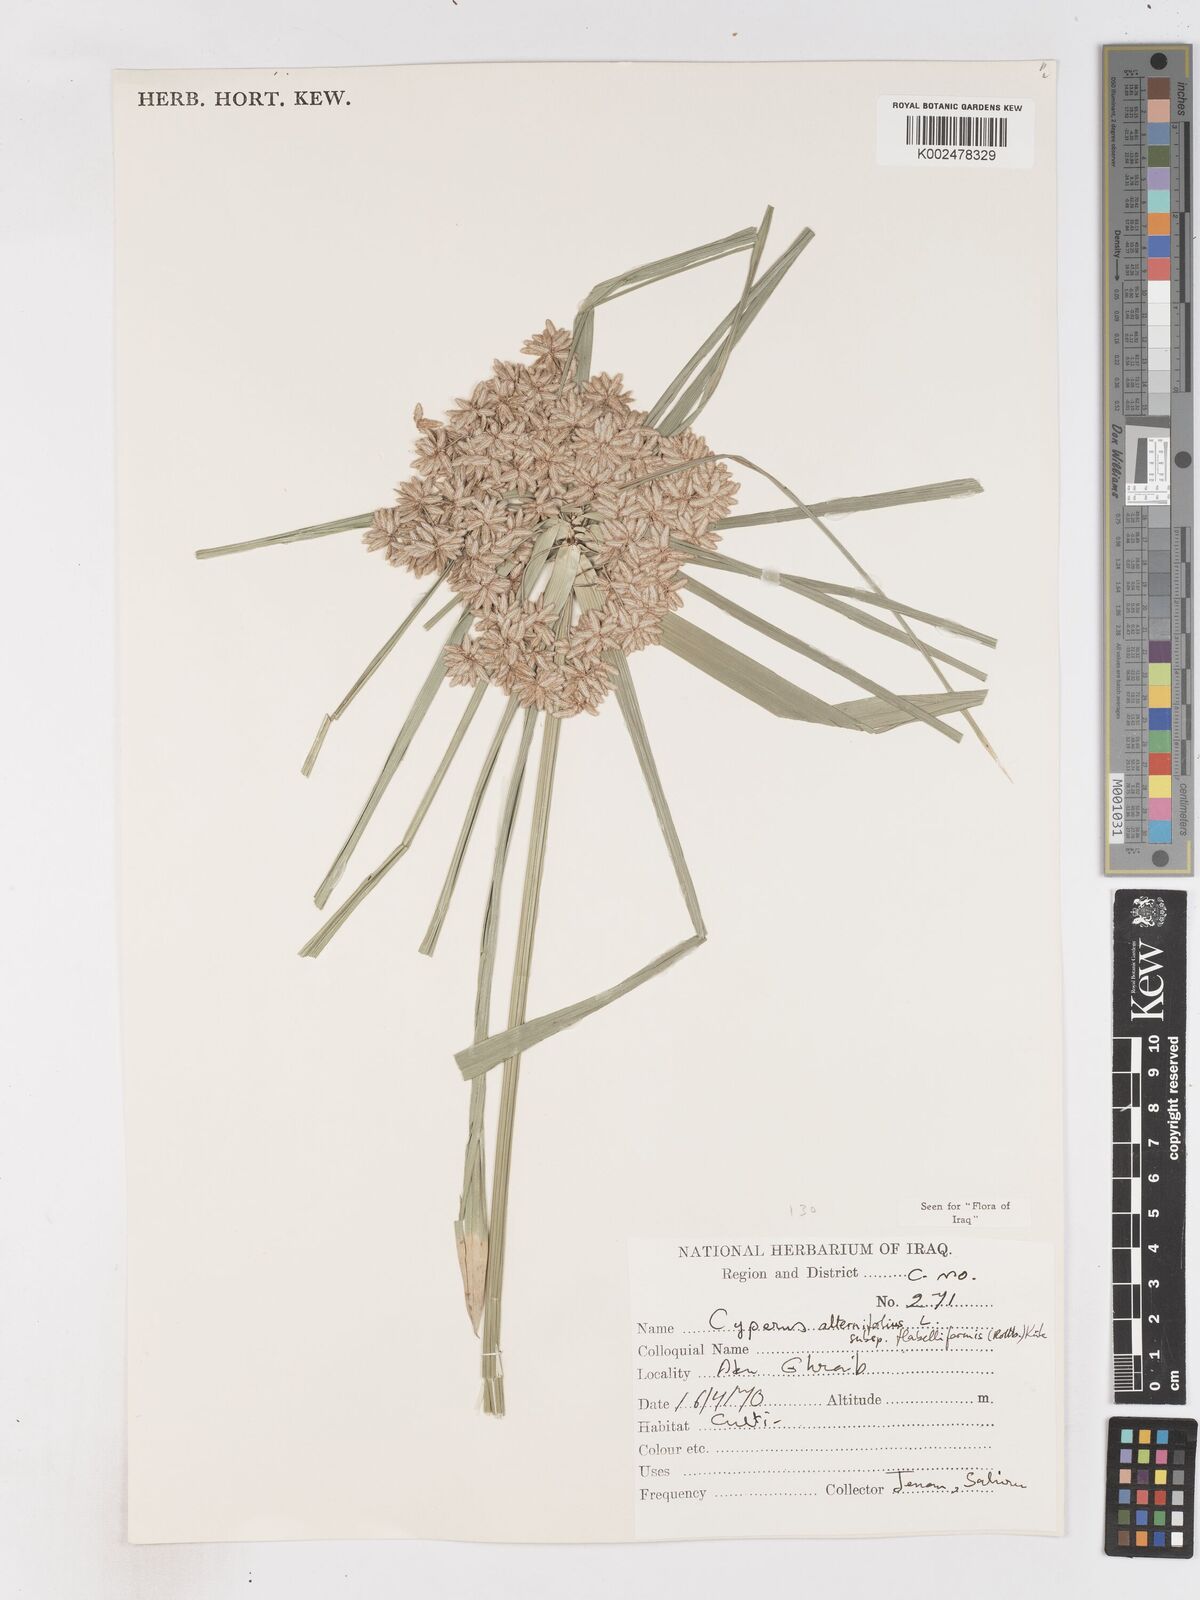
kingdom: Plantae
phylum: Tracheophyta
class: Liliopsida
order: Poales
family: Cyperaceae
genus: Cyperus
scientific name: Cyperus alternifolius
